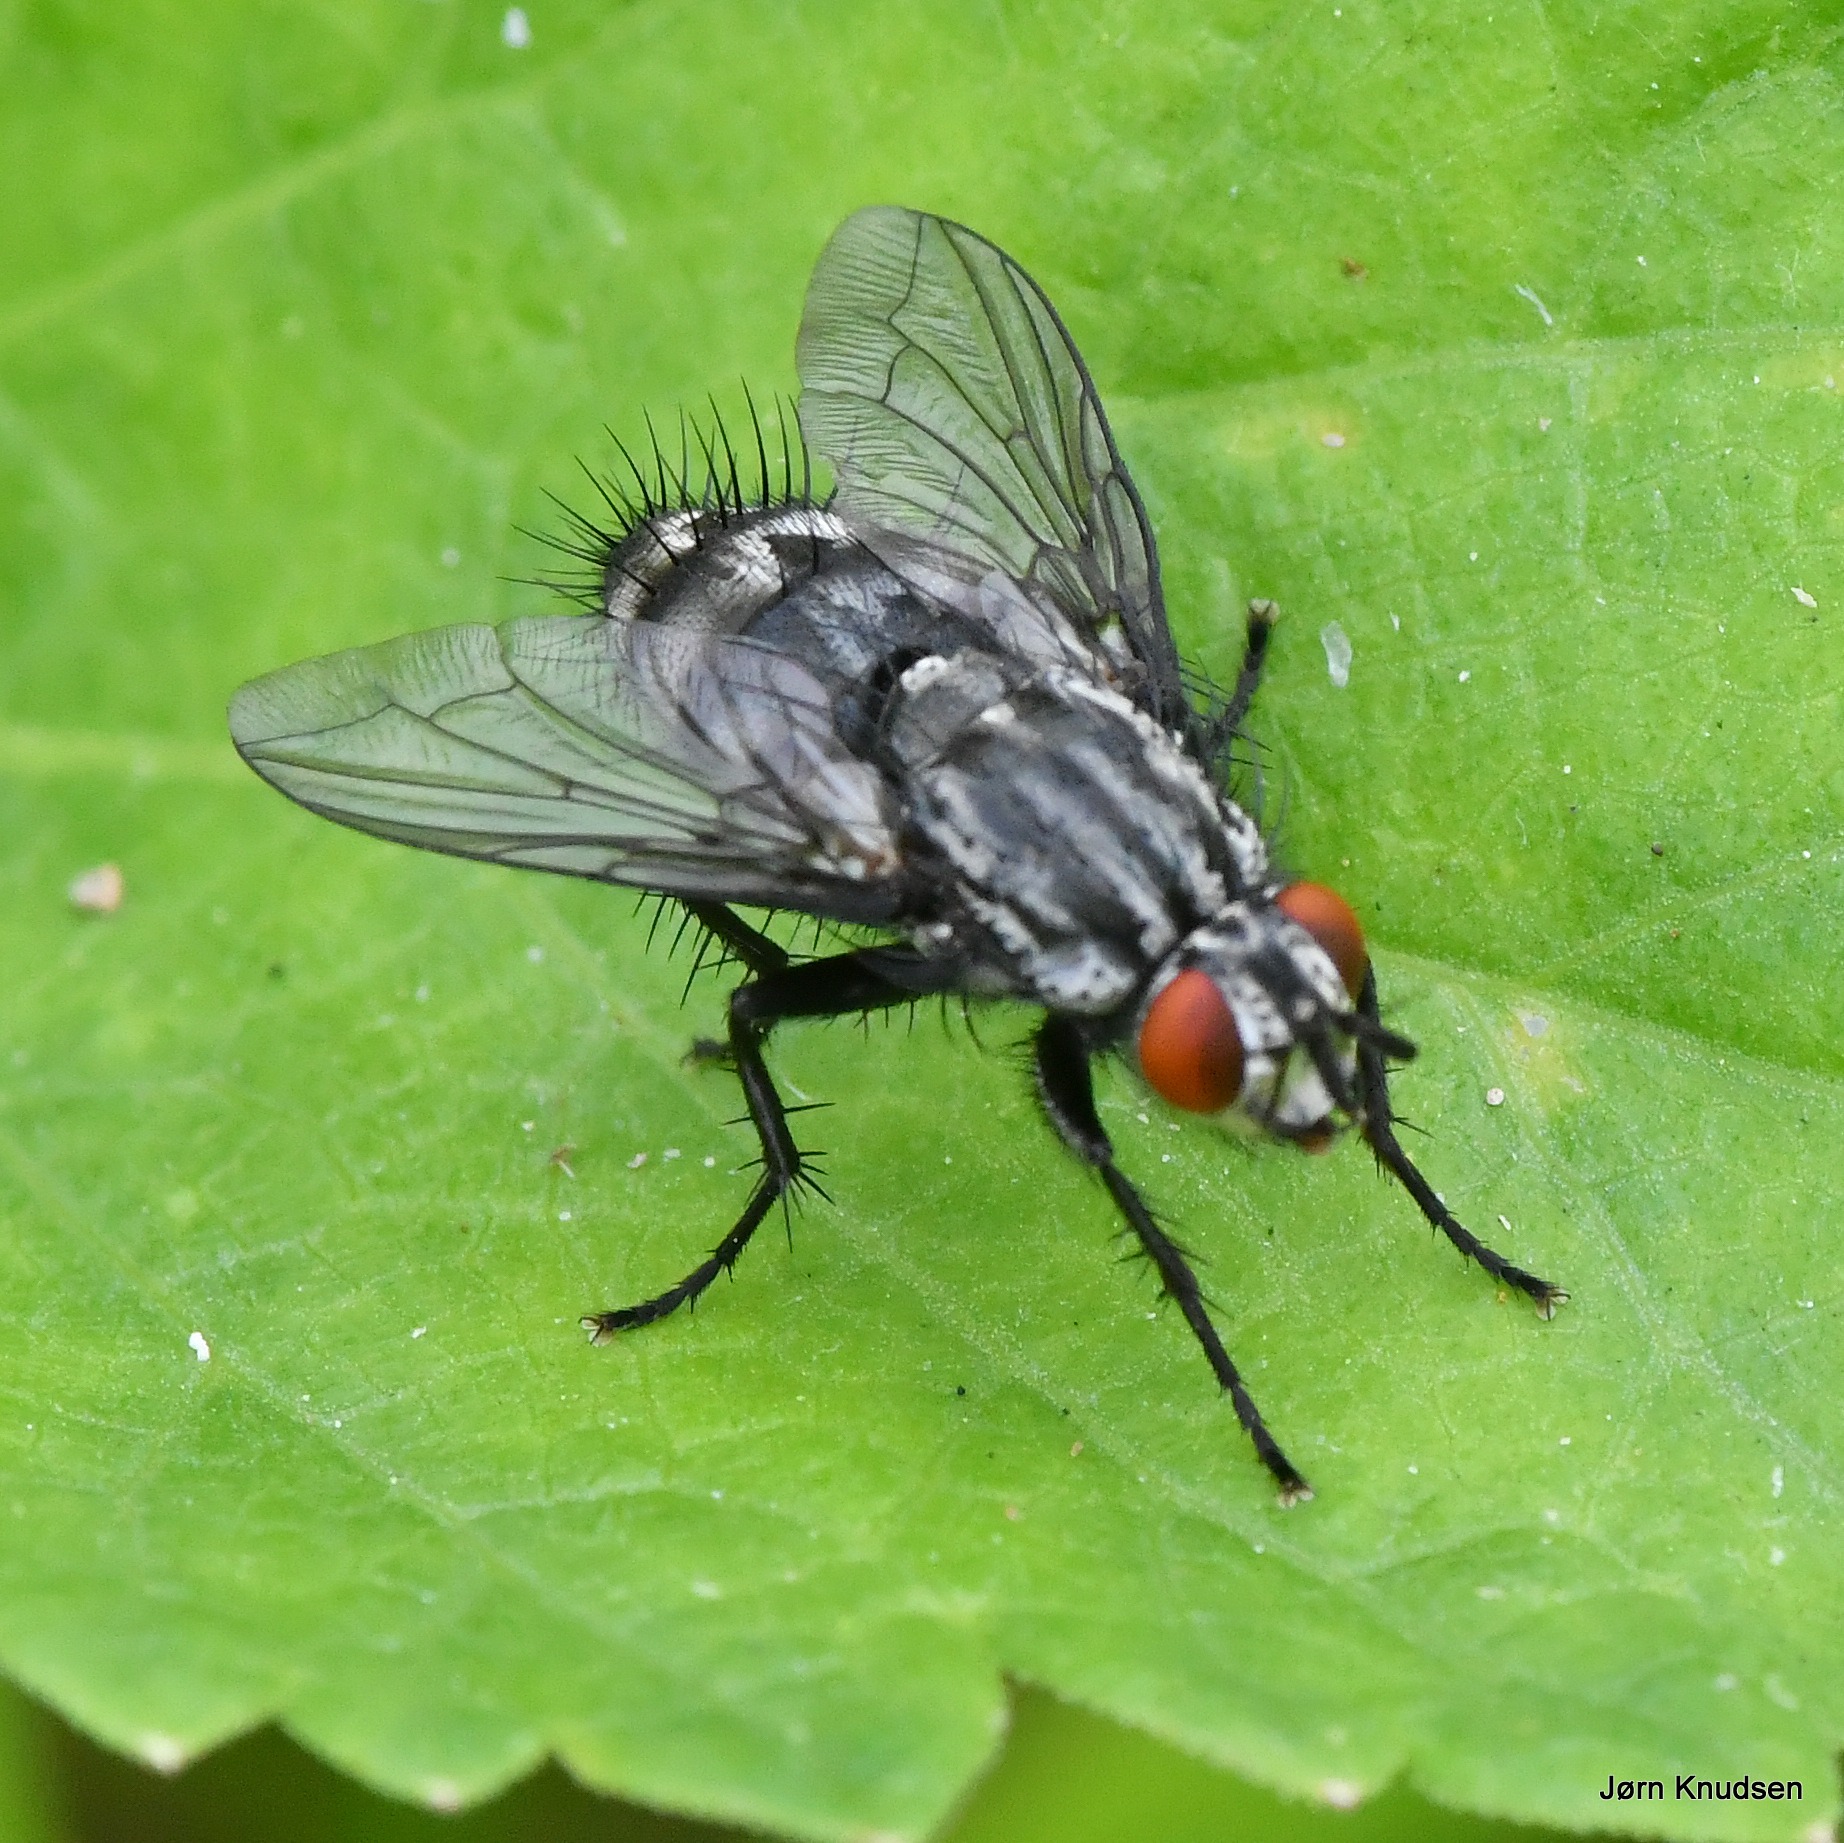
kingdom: Animalia
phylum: Arthropoda
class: Insecta
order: Diptera
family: Sarcophagidae
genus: Sarcophaga
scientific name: Sarcophaga
